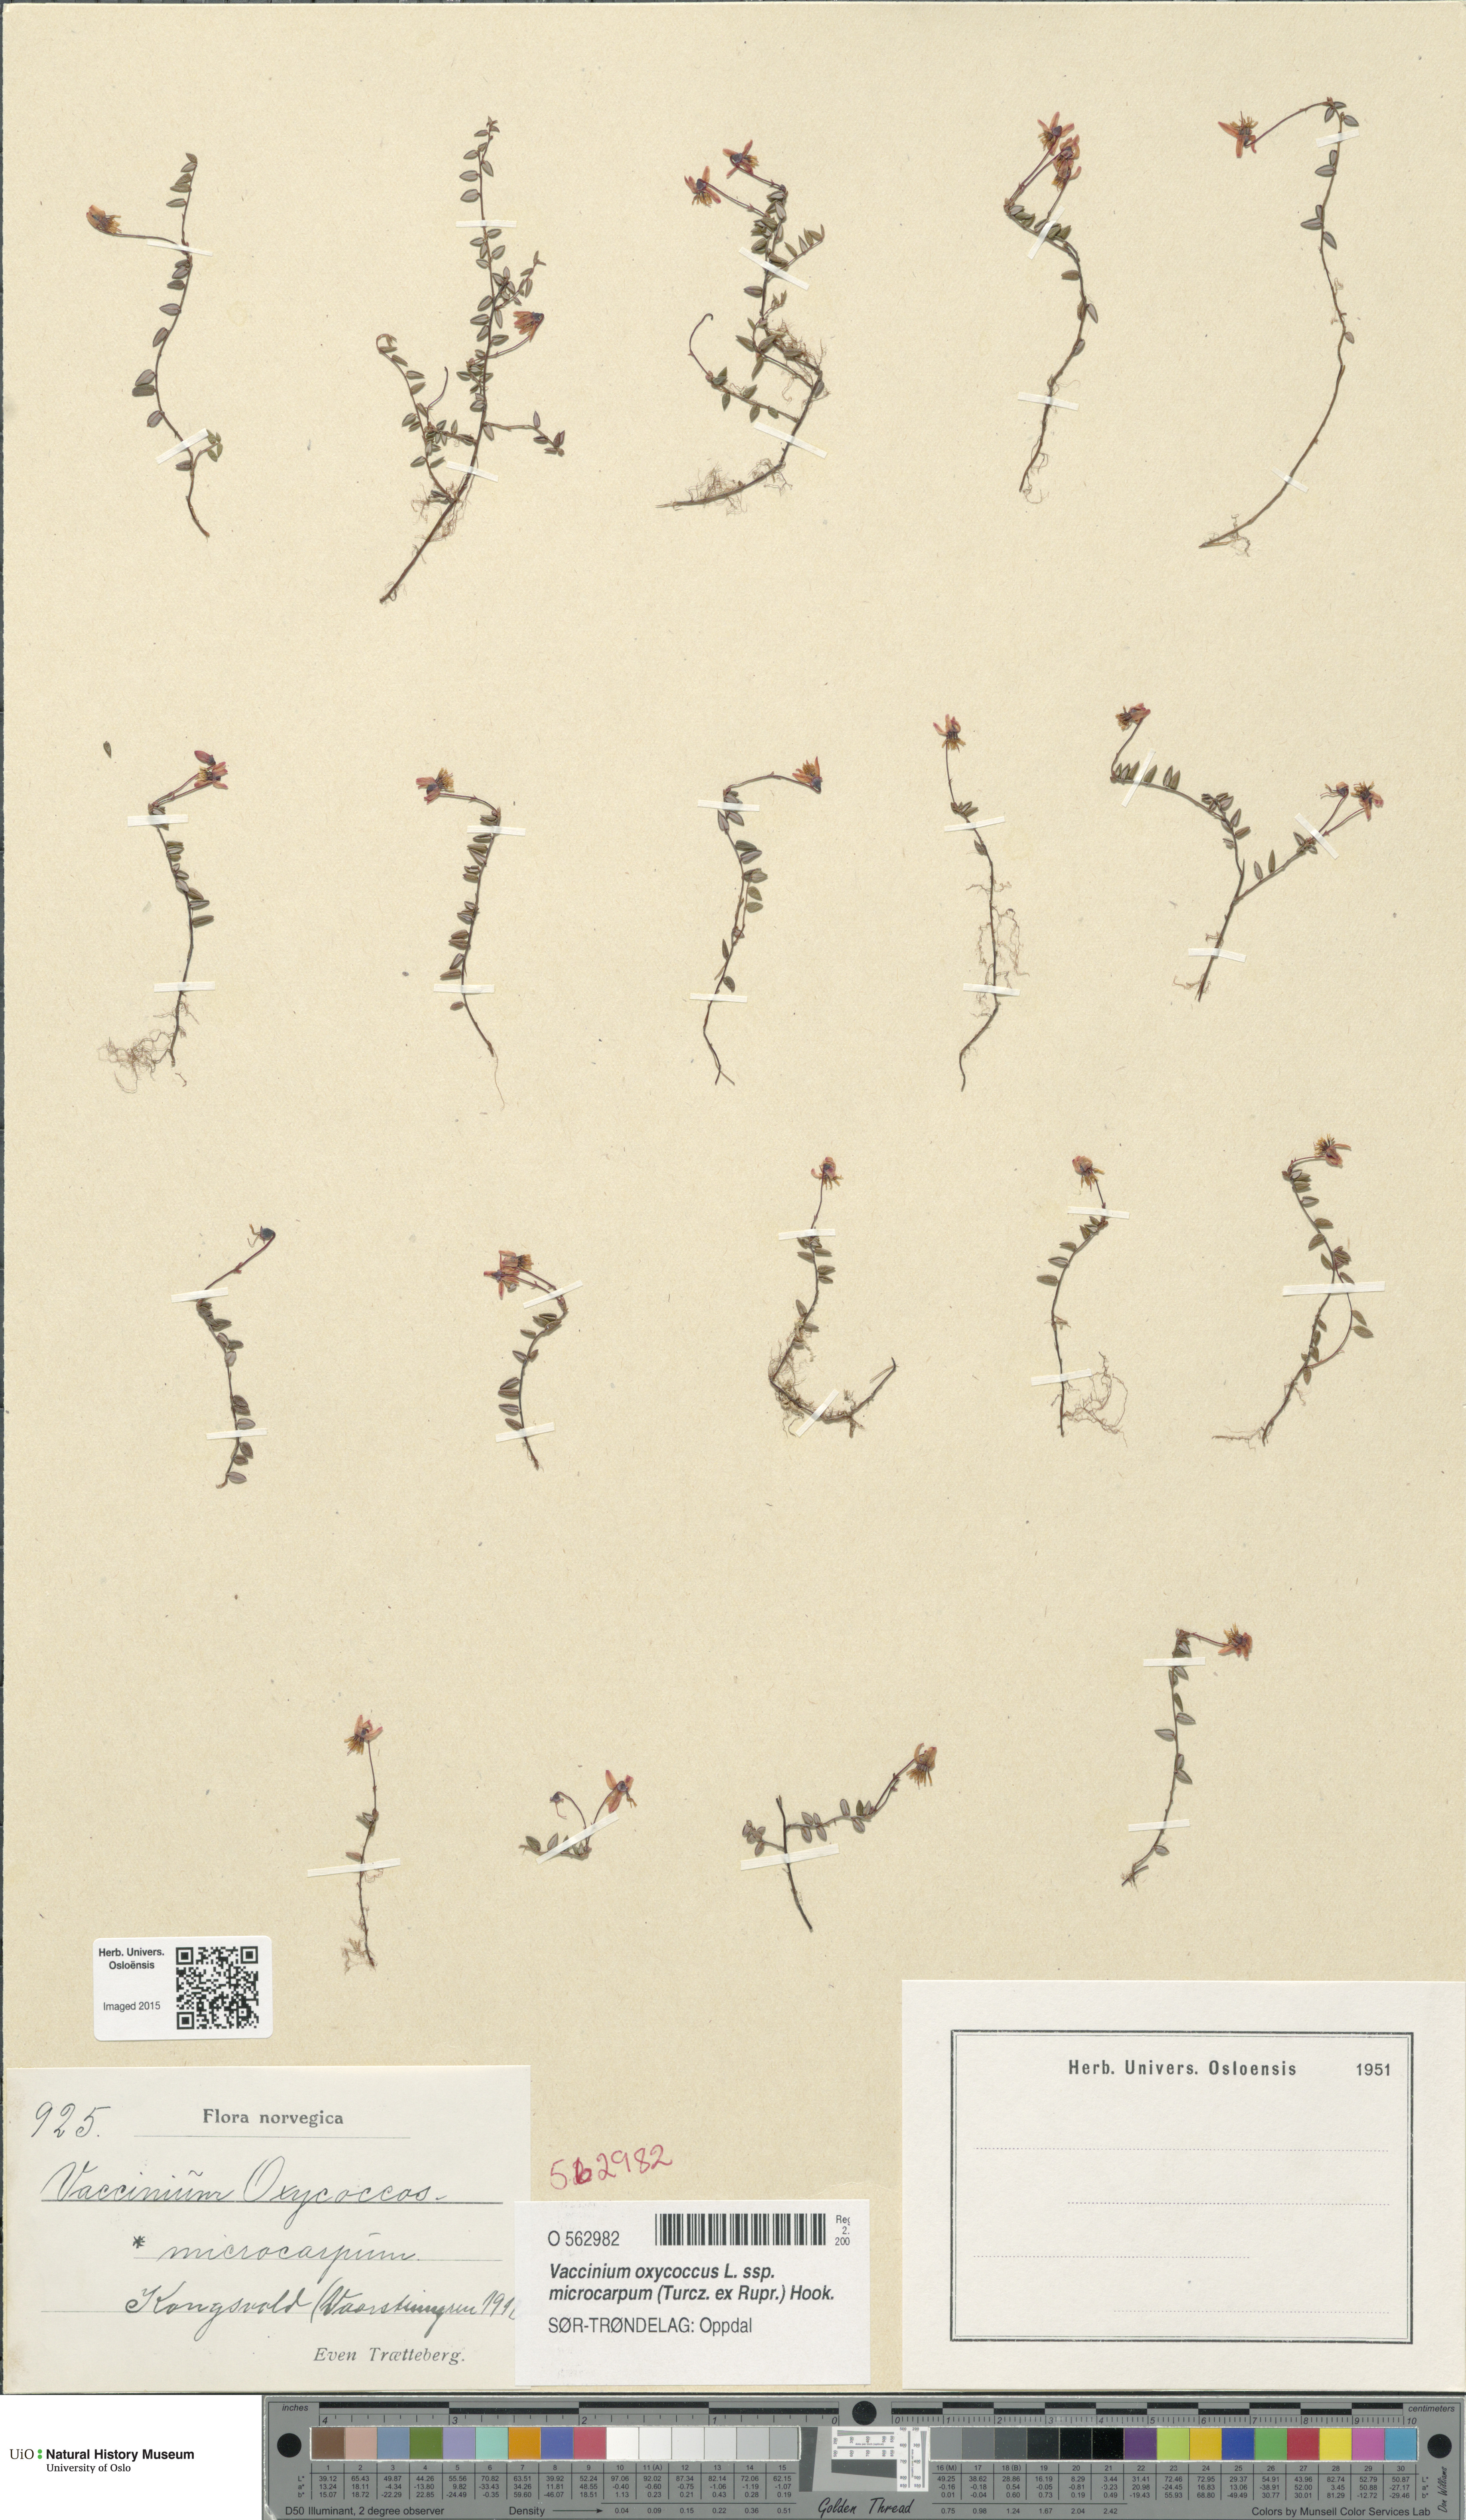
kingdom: Plantae
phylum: Tracheophyta
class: Magnoliopsida
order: Ericales
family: Ericaceae
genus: Vaccinium
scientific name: Vaccinium microcarpum
